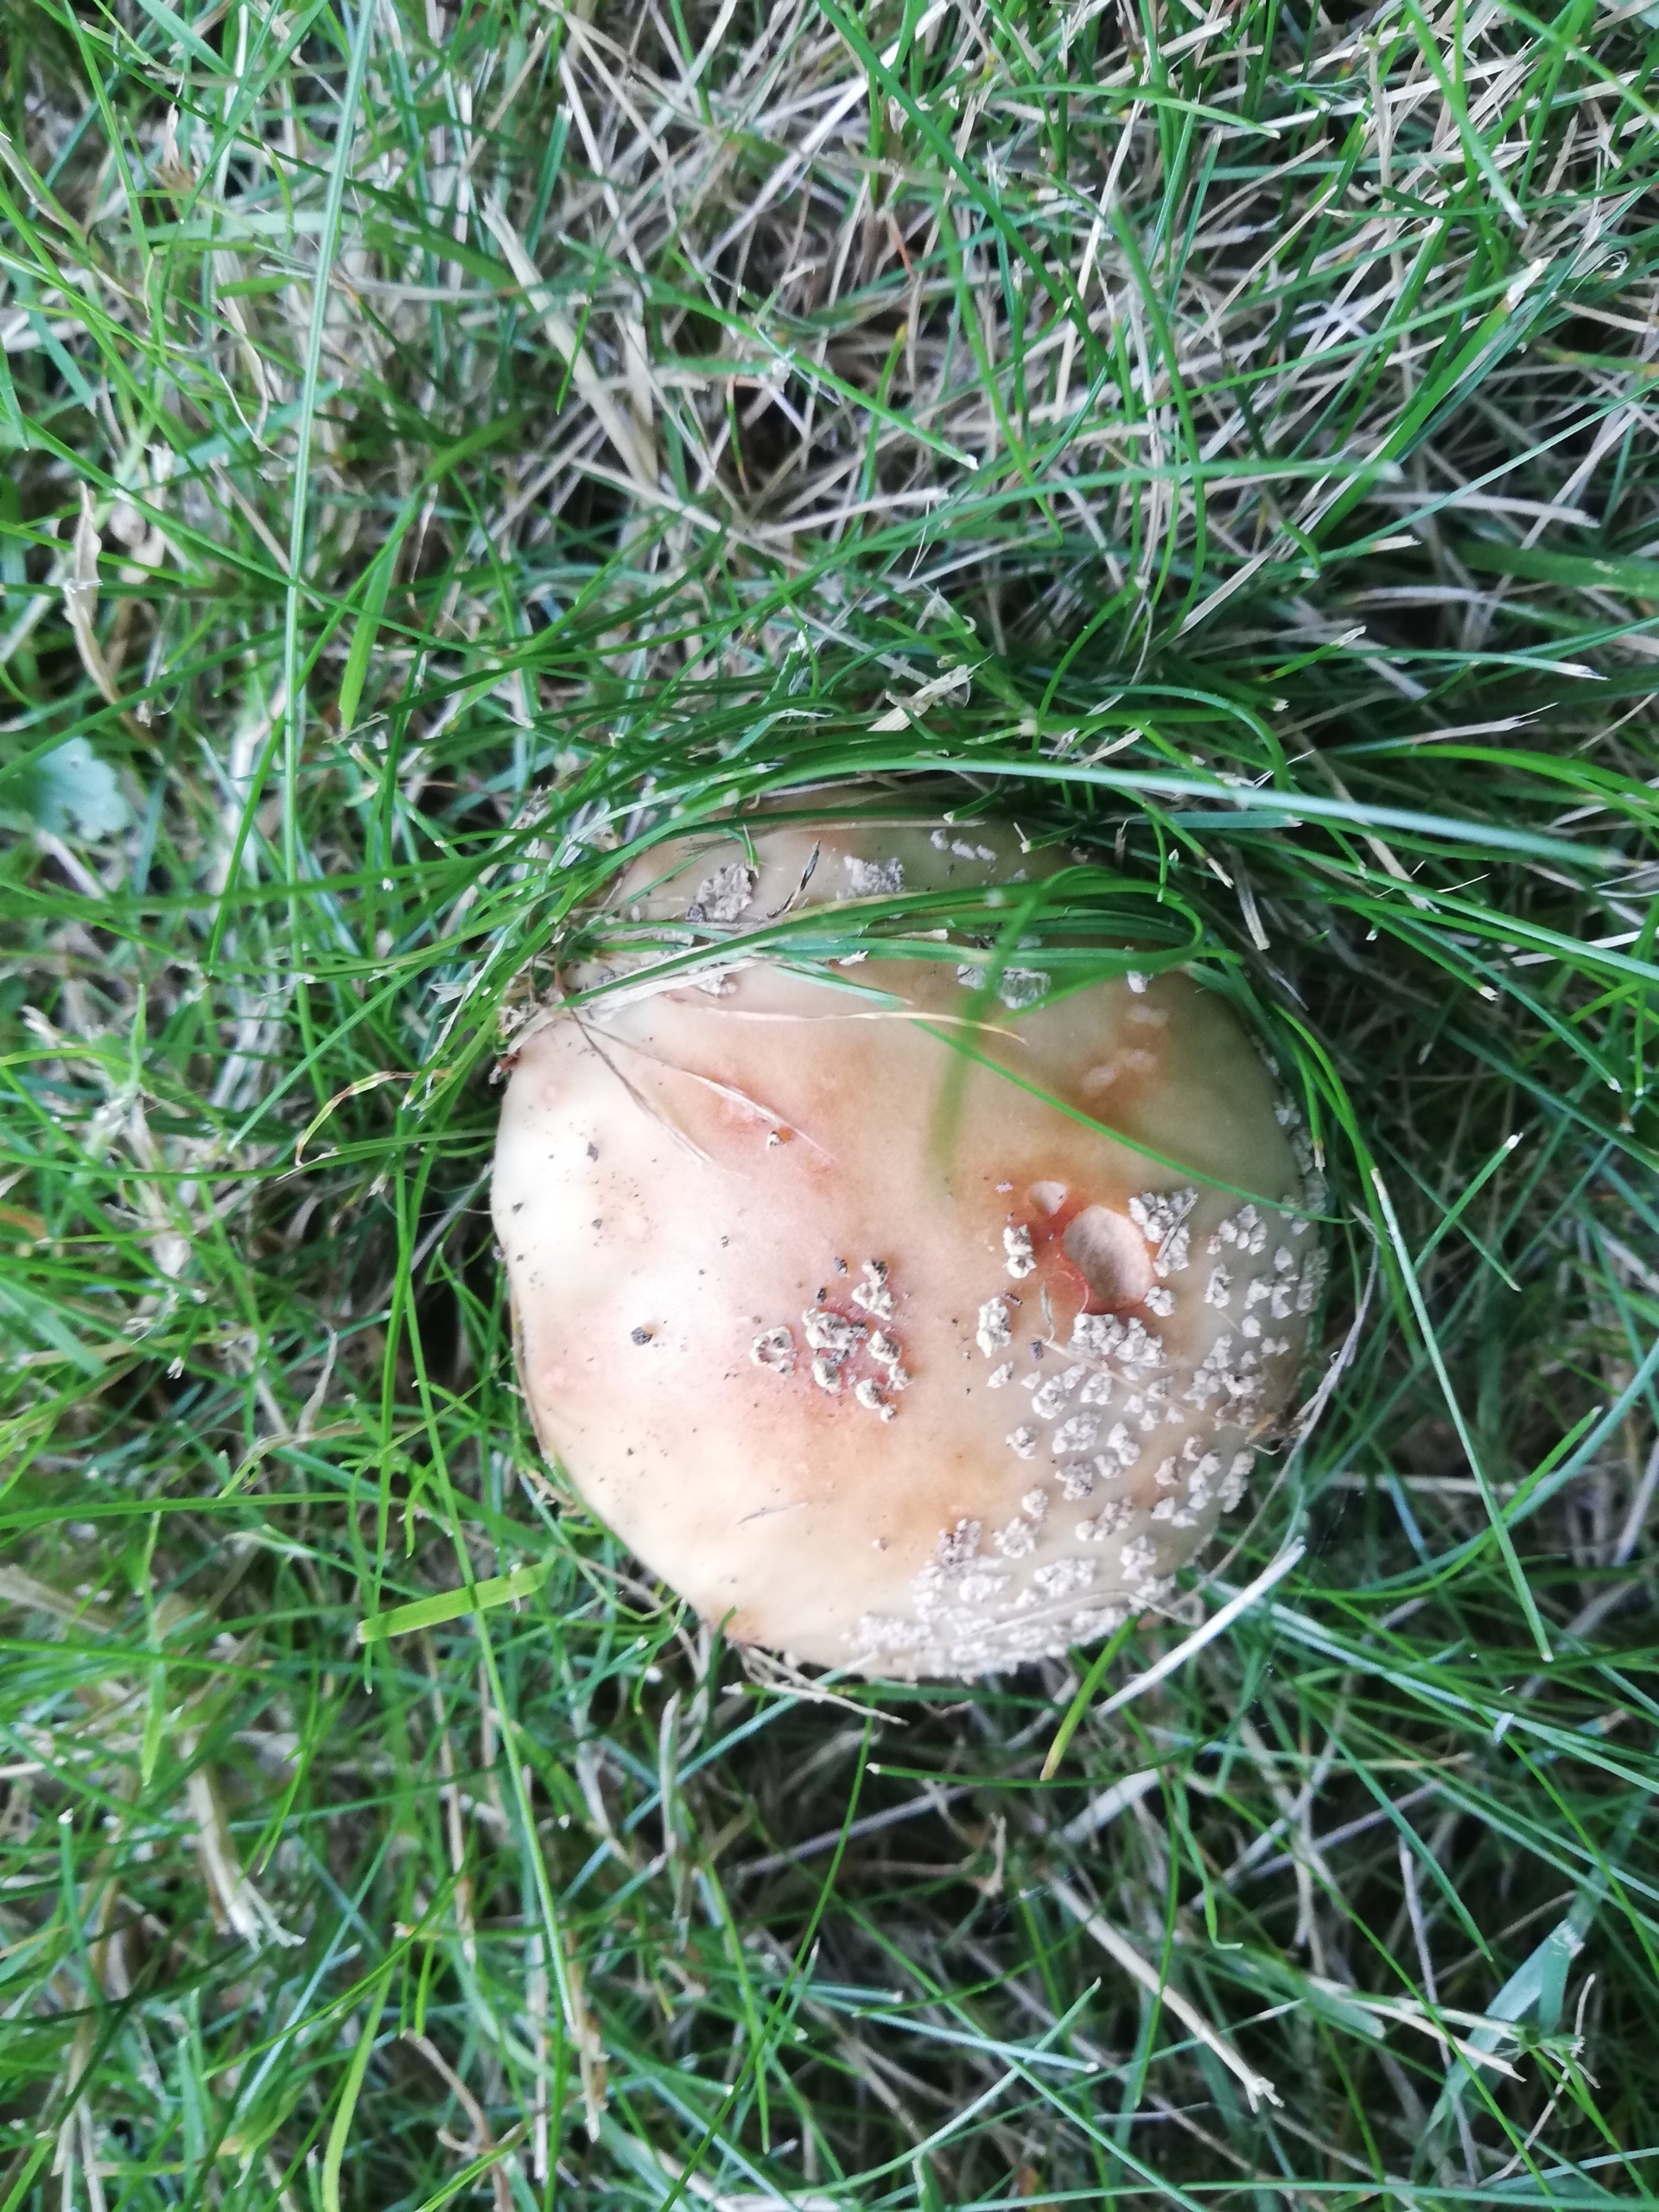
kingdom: Fungi
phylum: Basidiomycota
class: Agaricomycetes
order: Agaricales
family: Amanitaceae
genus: Amanita
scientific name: Amanita rubescens
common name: Rødmende fluesvamp
